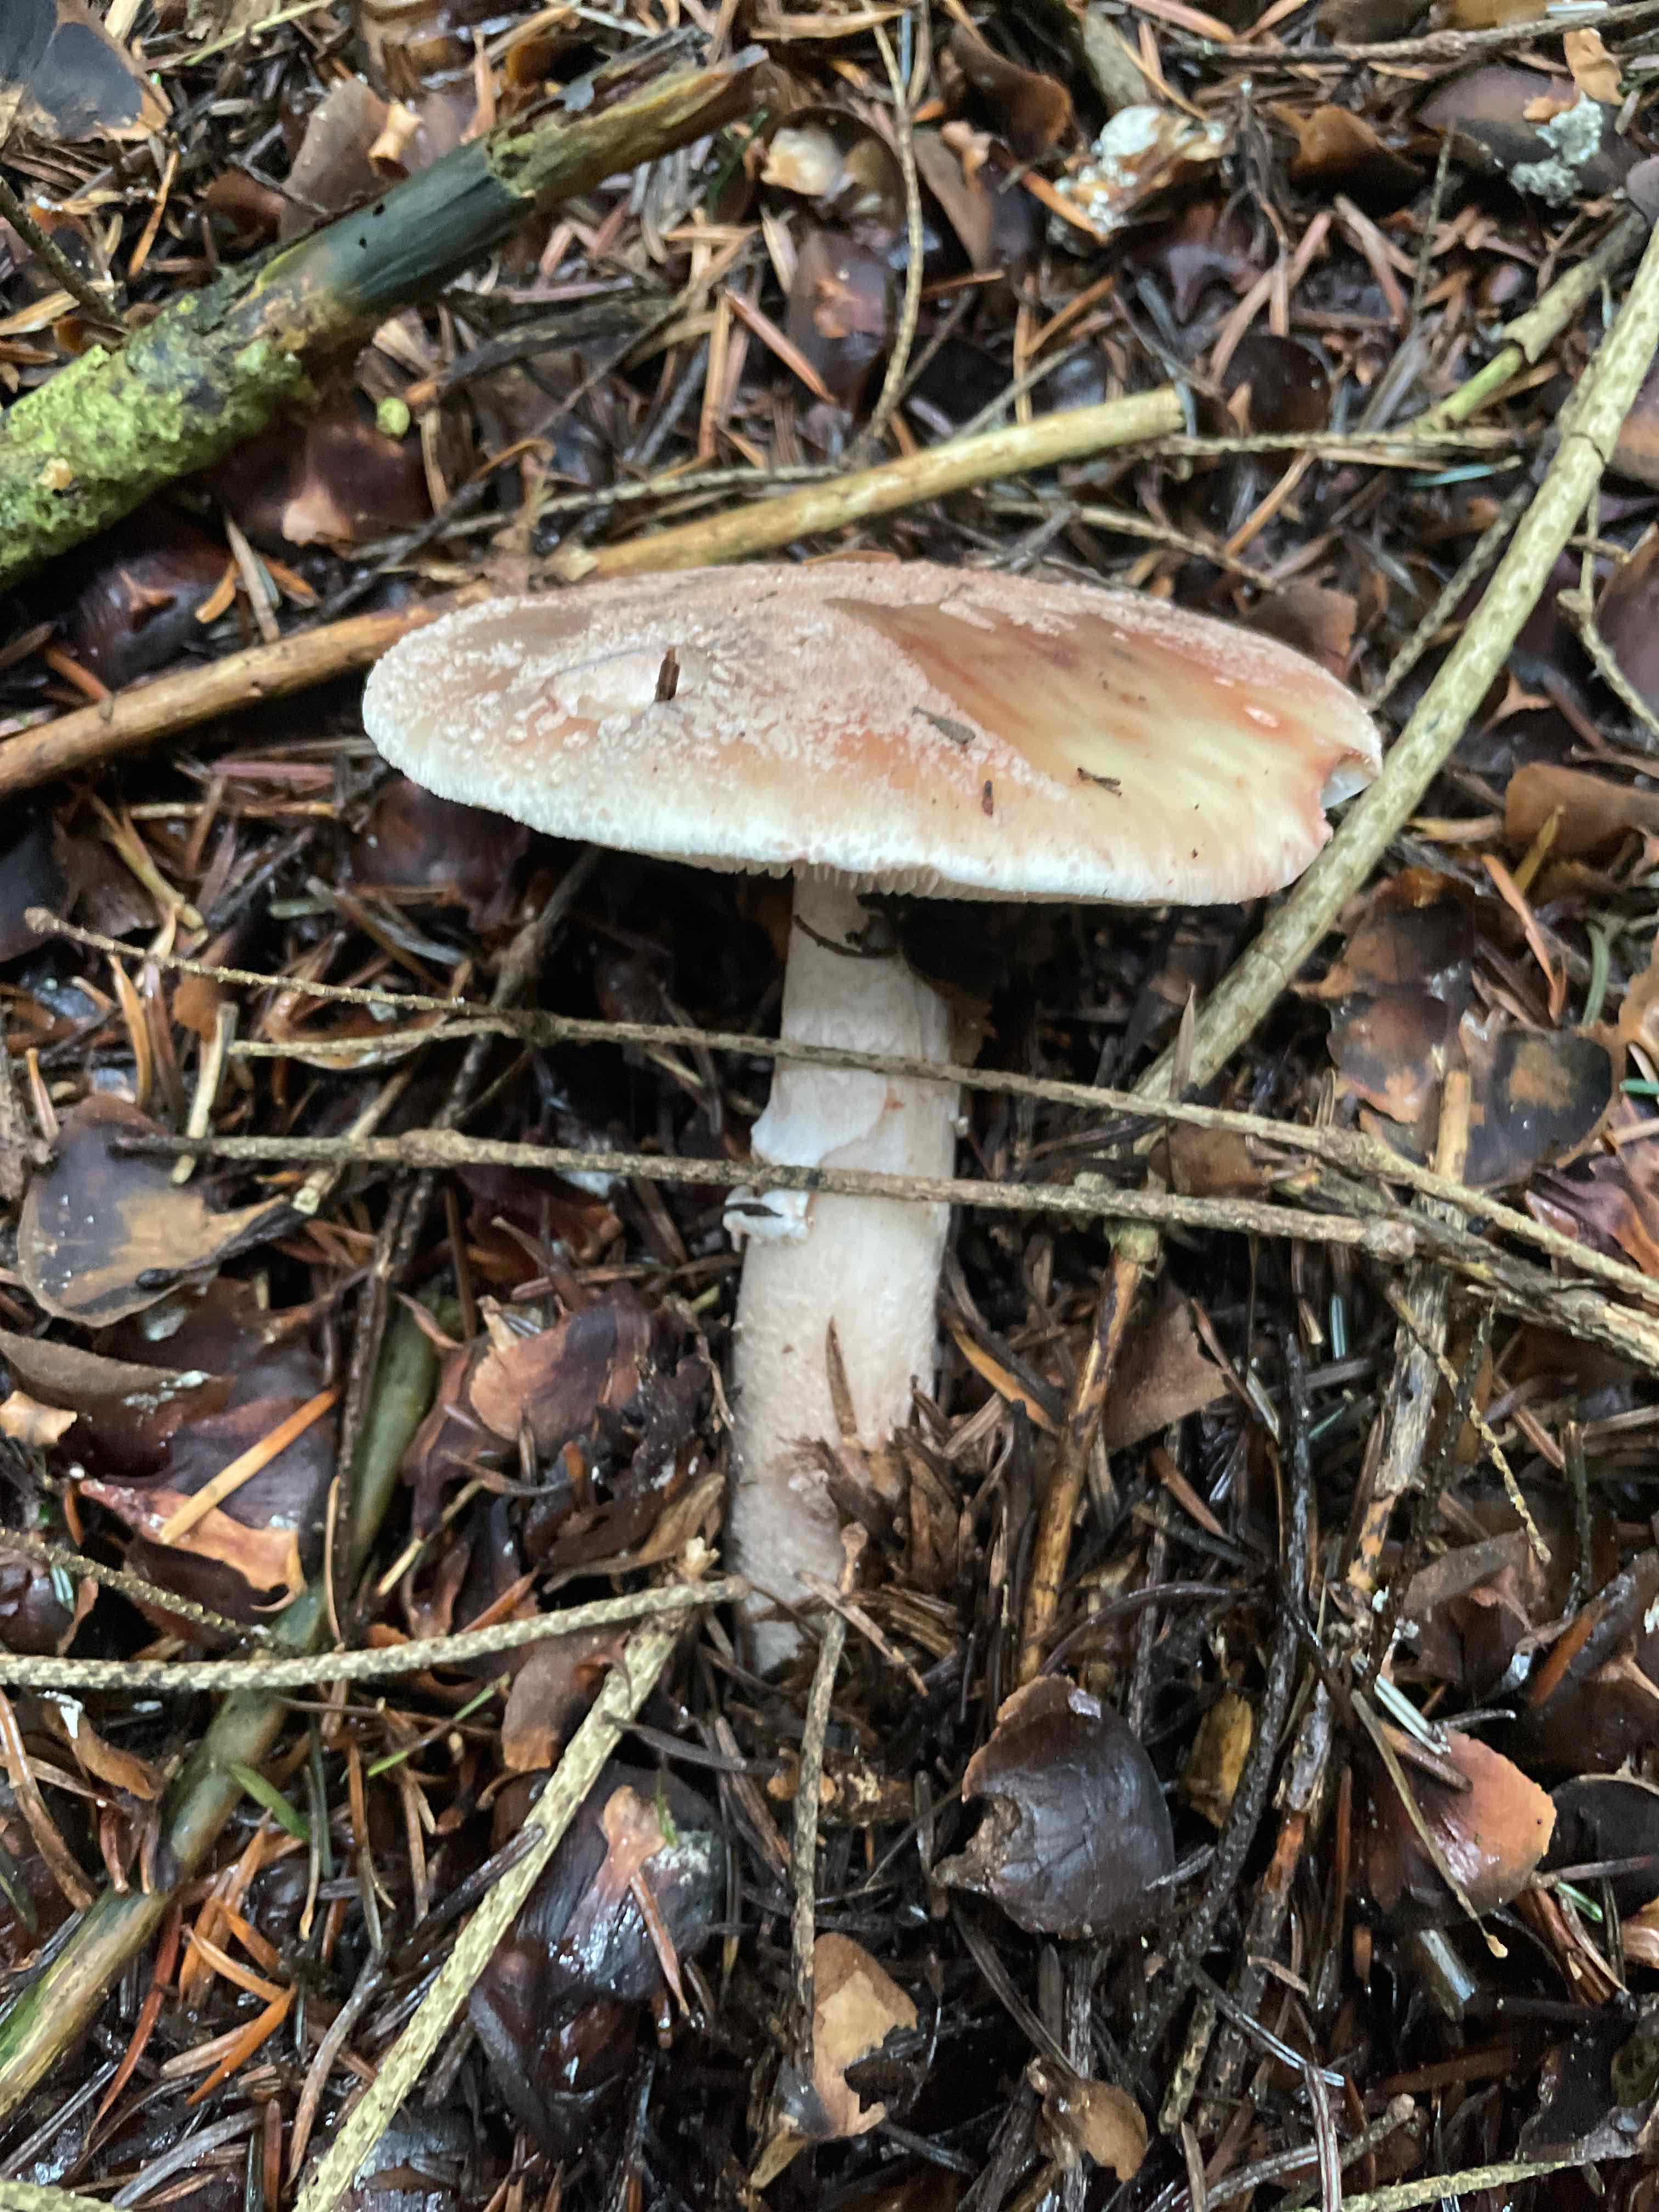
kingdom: Fungi
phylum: Basidiomycota
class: Agaricomycetes
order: Agaricales
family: Amanitaceae
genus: Amanita
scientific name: Amanita rubescens
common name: rødmende fluesvamp
